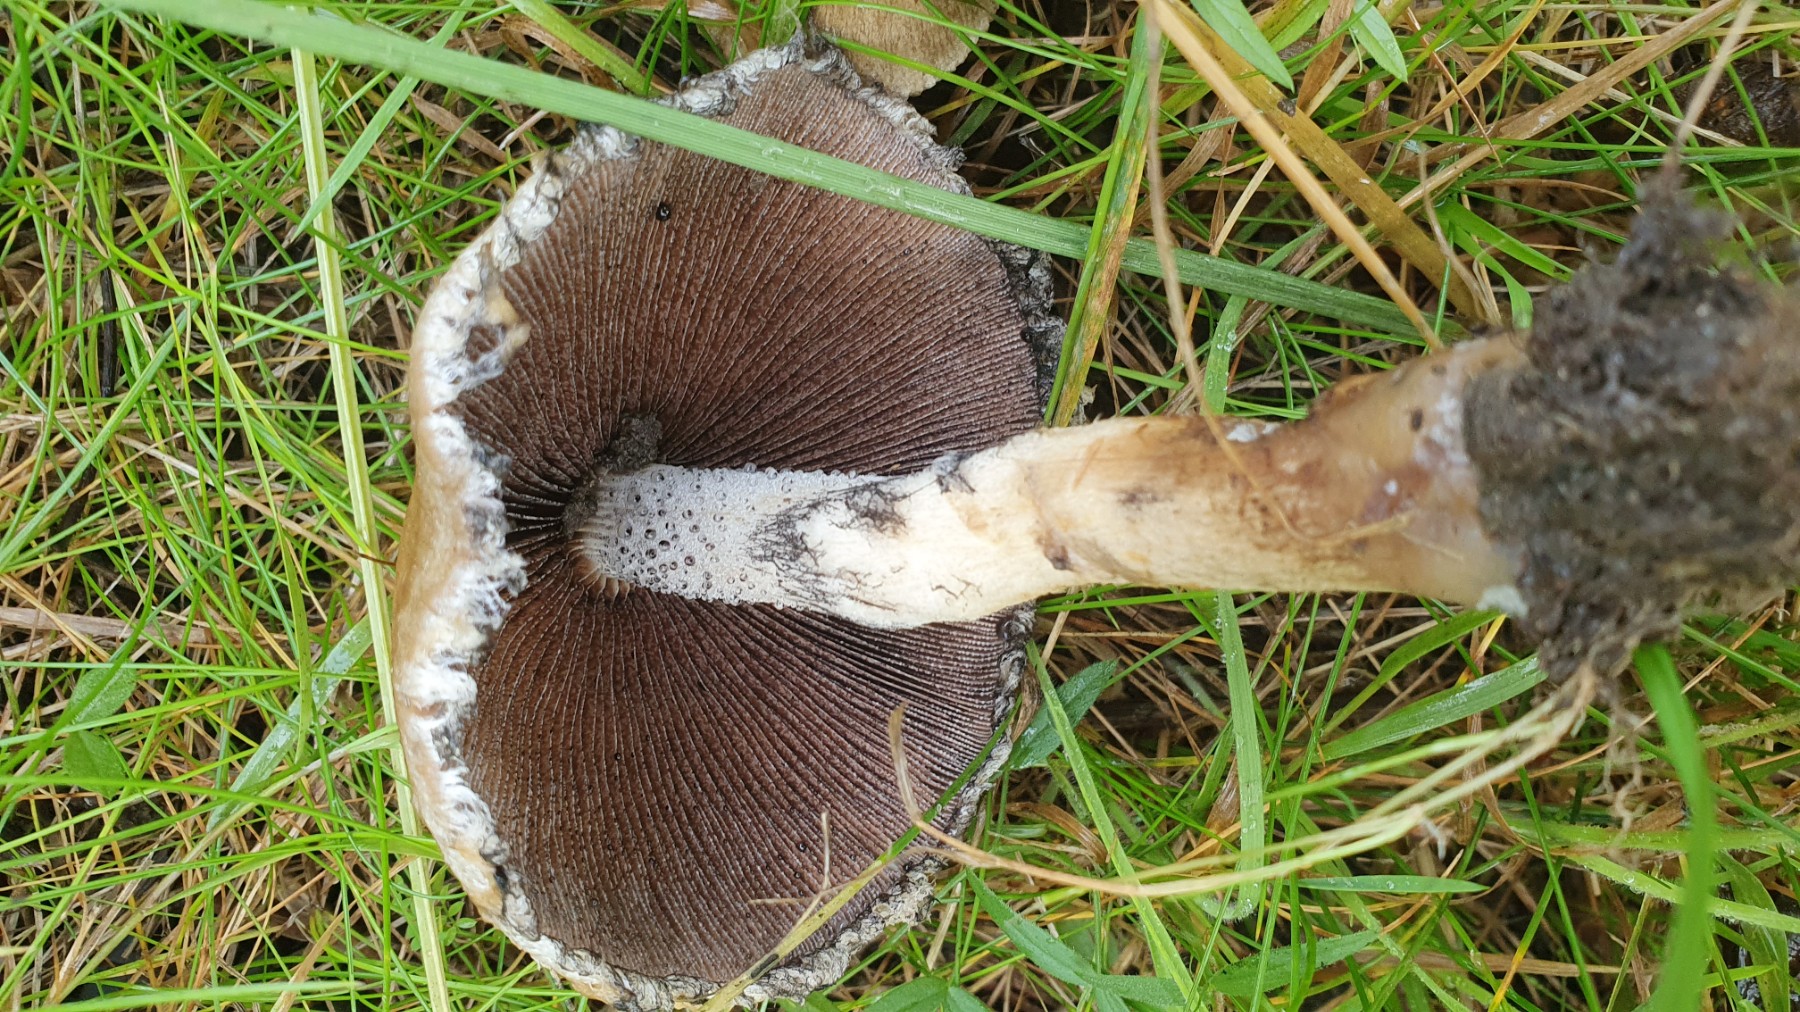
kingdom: Fungi
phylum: Basidiomycota
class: Agaricomycetes
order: Agaricales
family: Psathyrellaceae
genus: Lacrymaria
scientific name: Lacrymaria lacrymabunda
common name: grædende mørkhat
